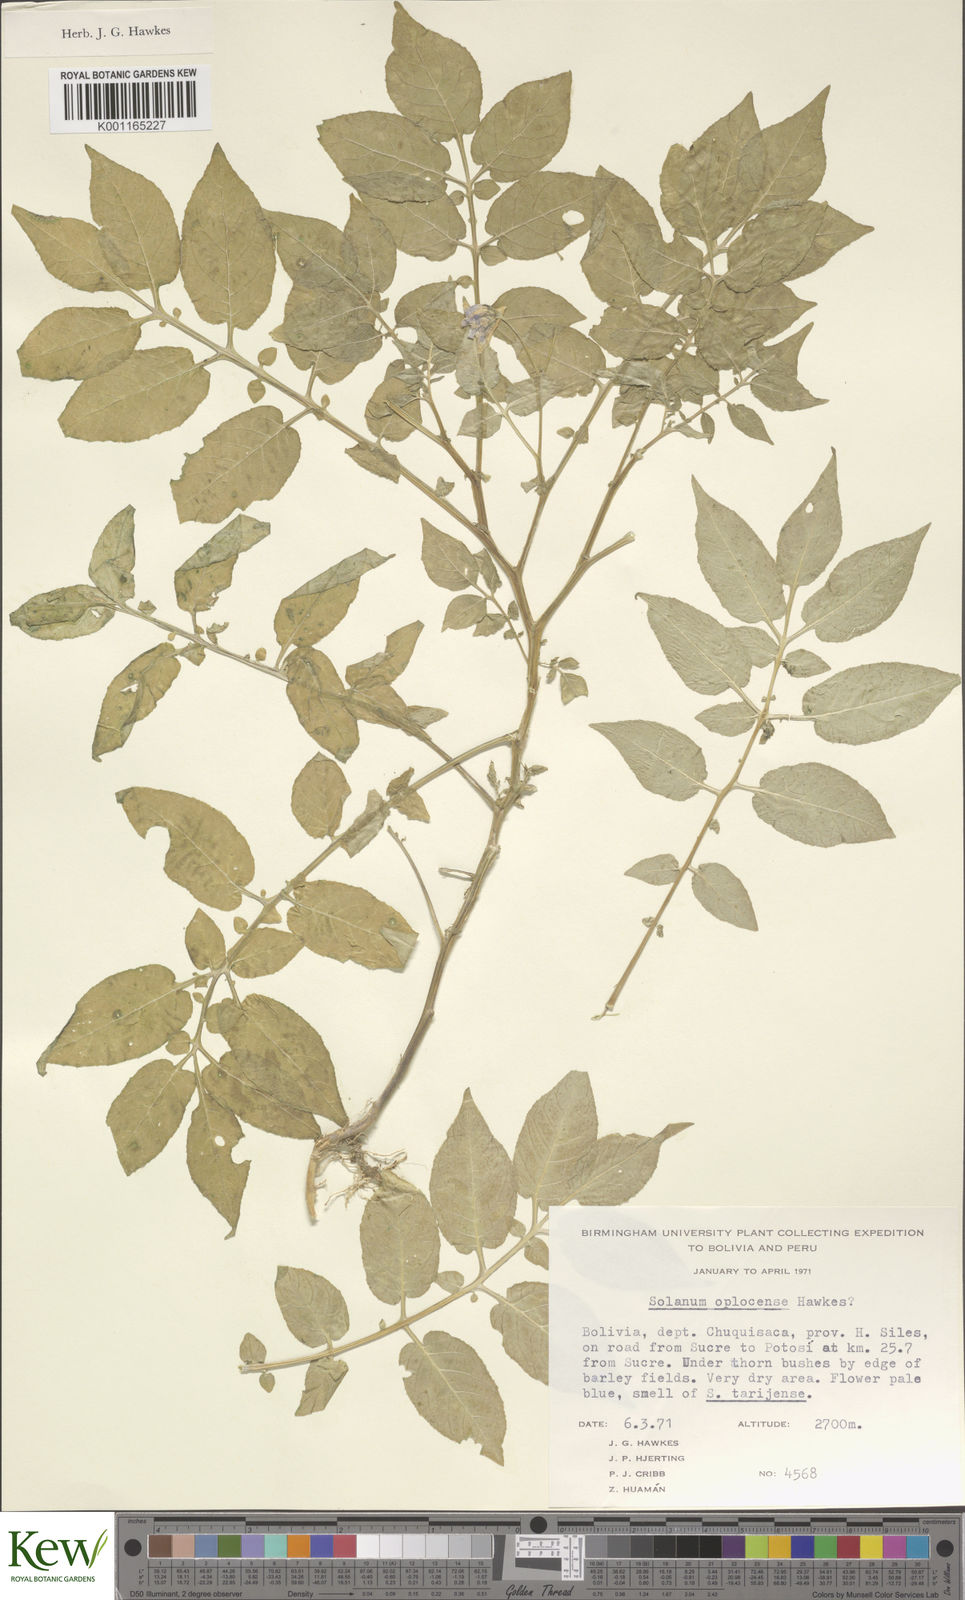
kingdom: Plantae
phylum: Tracheophyta
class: Magnoliopsida
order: Solanales
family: Solanaceae
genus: Solanum
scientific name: Solanum brevicaule
